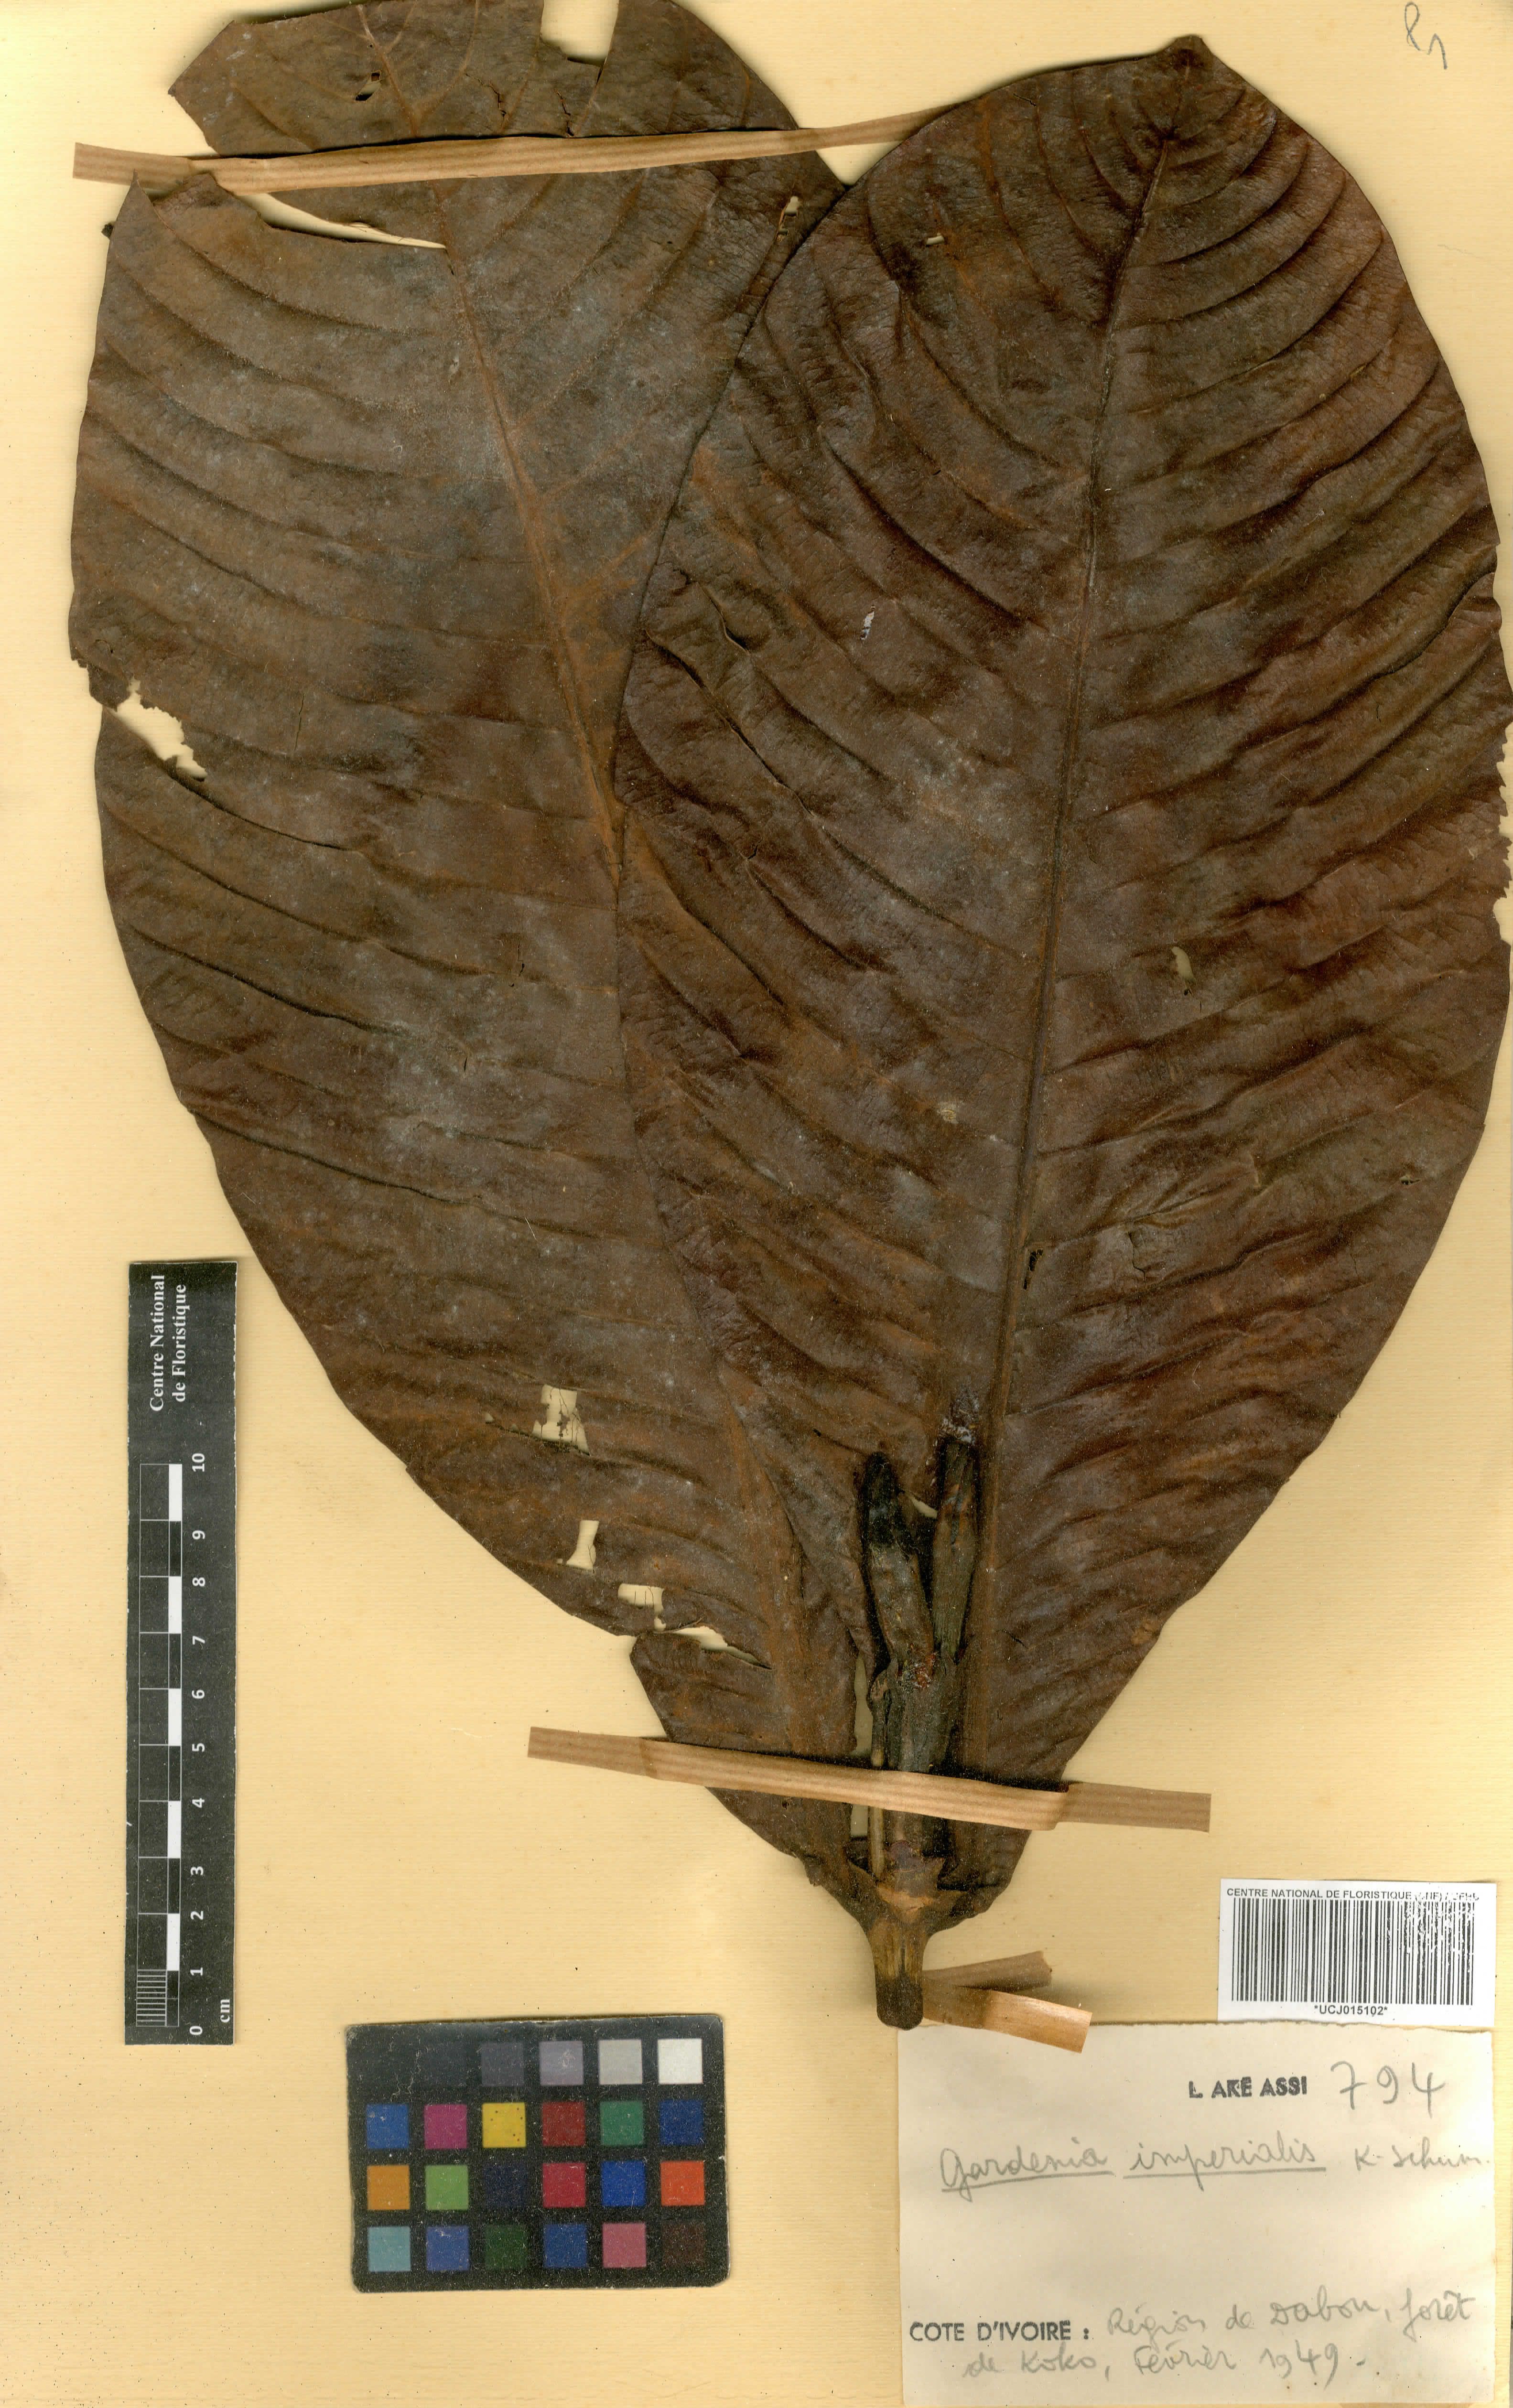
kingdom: Plantae
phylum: Tracheophyta
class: Magnoliopsida
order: Gentianales
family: Rubiaceae
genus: Gardenia
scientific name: Gardenia imperialis
